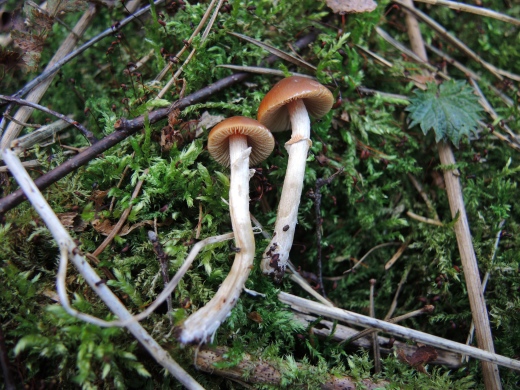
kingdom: Fungi
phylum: Basidiomycota
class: Agaricomycetes
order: Agaricales
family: Bolbitiaceae
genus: Conocybe
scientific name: Conocybe aporos
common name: tidlig dansehat
